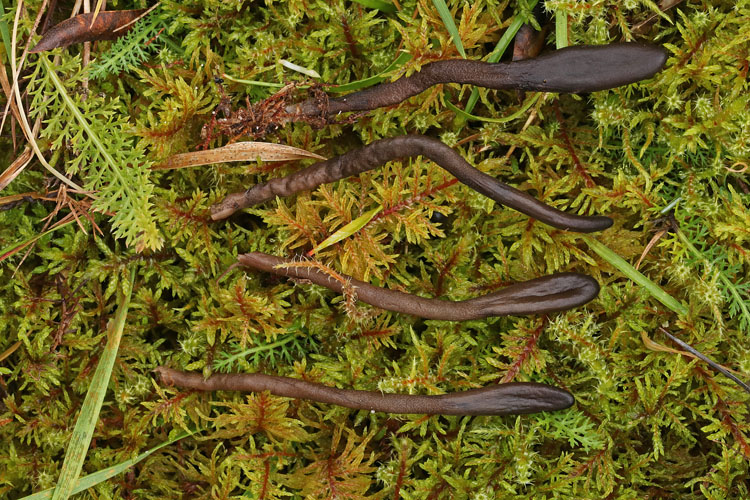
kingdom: Fungi
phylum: Ascomycota
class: Geoglossomycetes
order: Geoglossales
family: Geoglossaceae
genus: Hemileucoglossum
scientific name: Hemileucoglossum elongatum
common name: småsporet jordtunge
